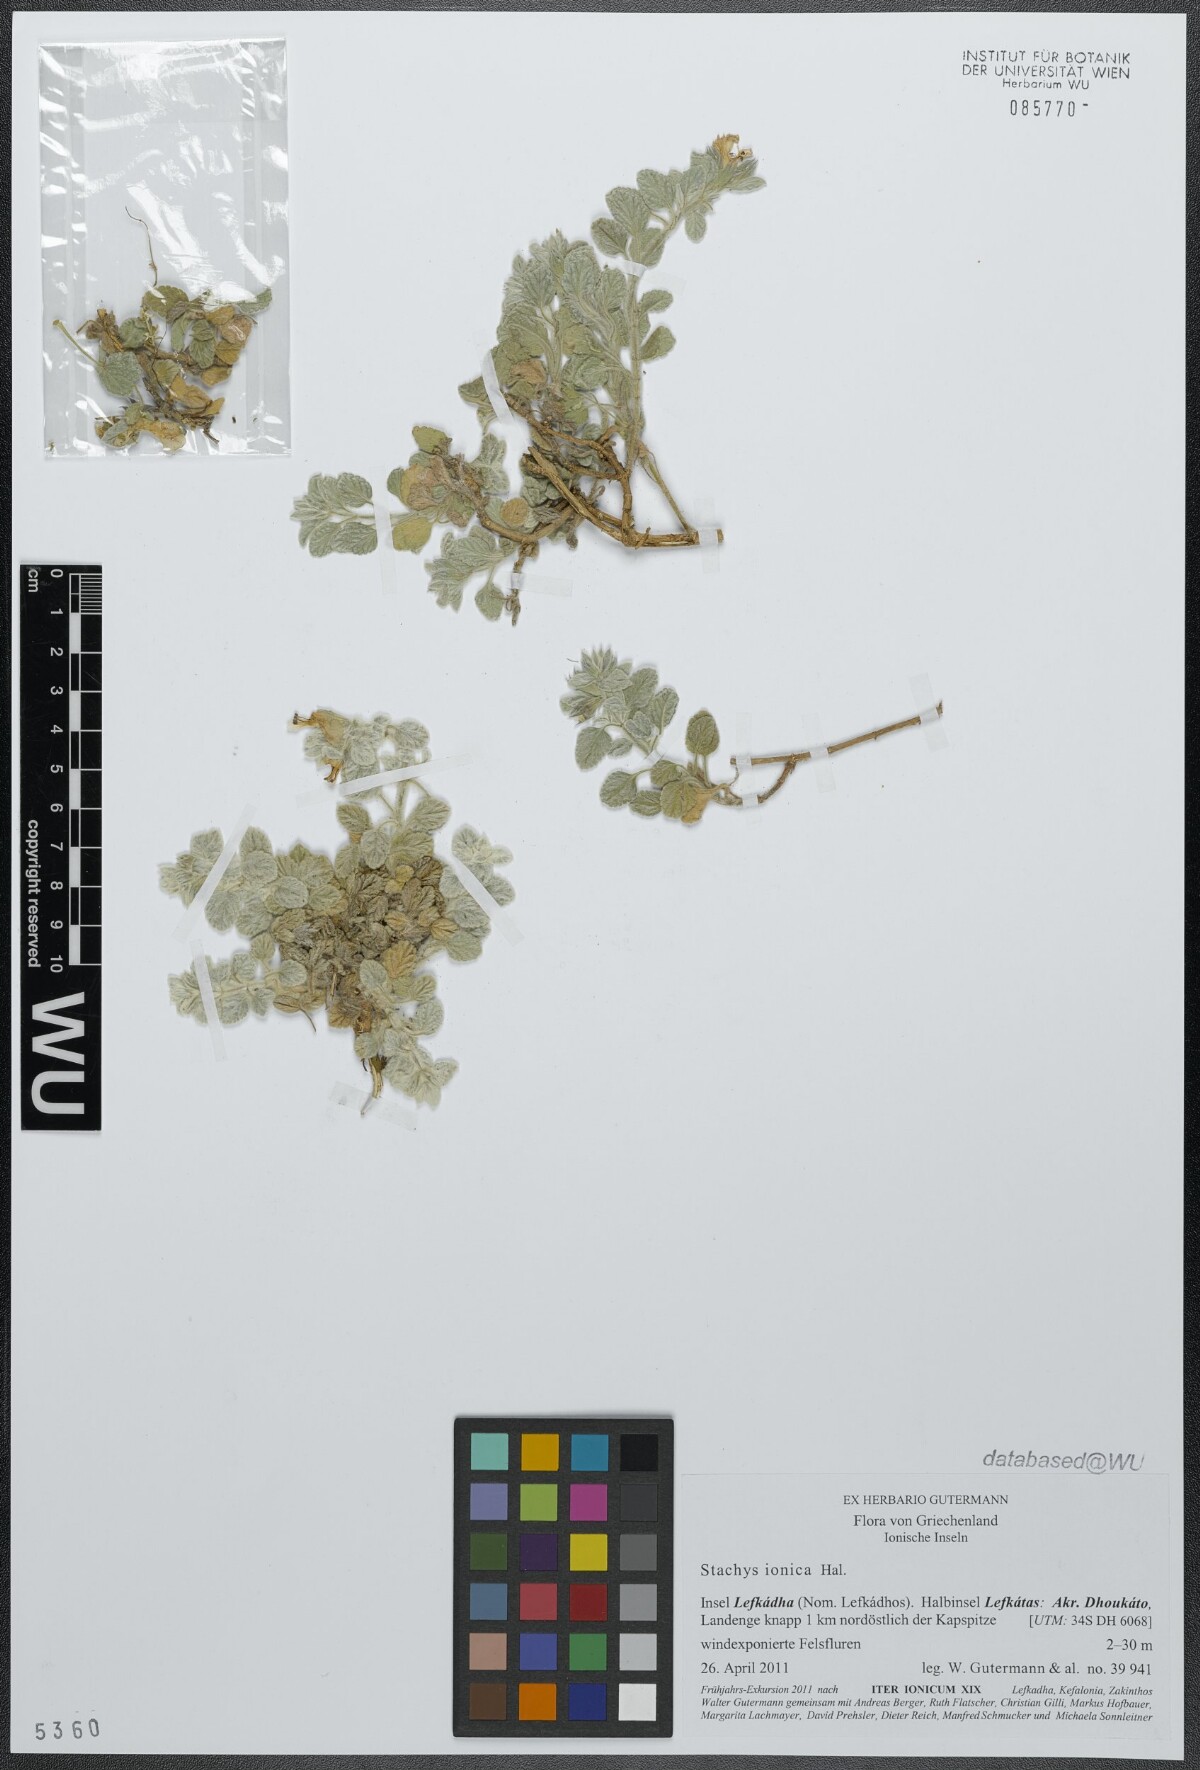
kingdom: Plantae
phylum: Tracheophyta
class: Magnoliopsida
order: Lamiales
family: Lamiaceae
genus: Stachys
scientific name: Stachys ionica
